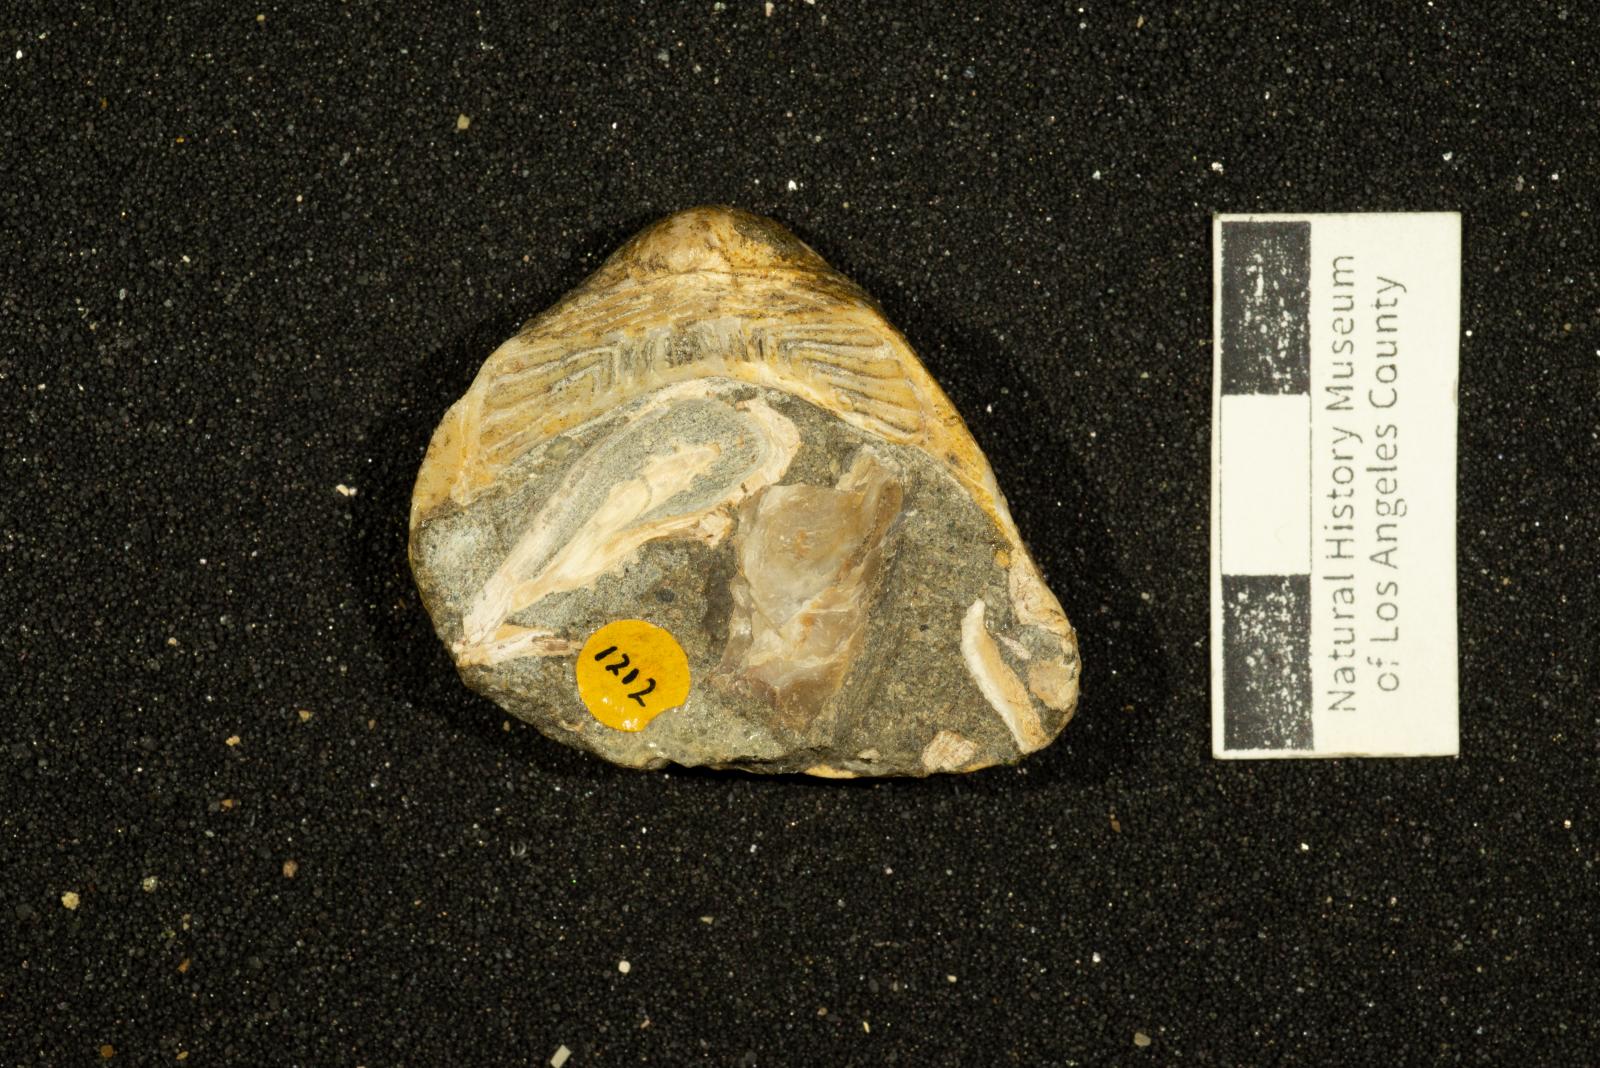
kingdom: Animalia
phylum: Mollusca
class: Bivalvia
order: Arcida
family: Cucullaeidae
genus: Idonearca
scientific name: Idonearca Cucullaea melhaseana
